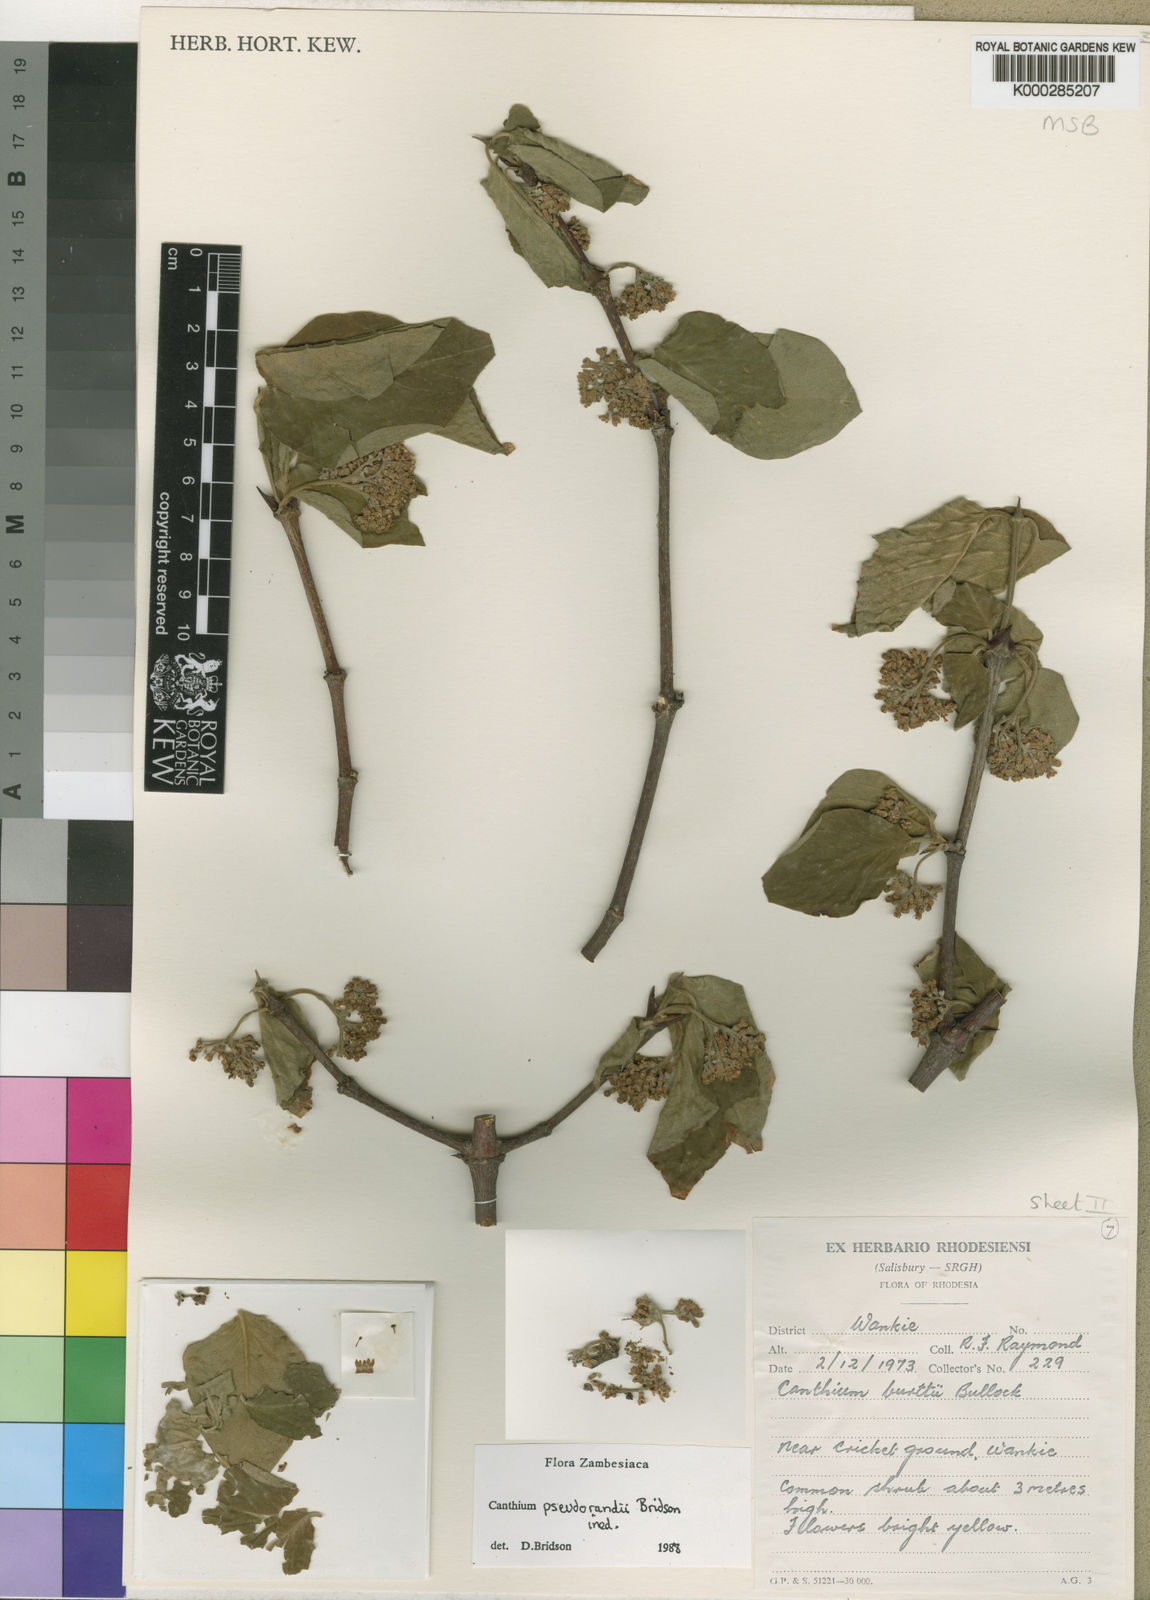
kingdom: Plantae
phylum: Tracheophyta
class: Magnoliopsida
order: Gentianales
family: Rubiaceae
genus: Afrocanthium
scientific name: Afrocanthium pseudorandii
